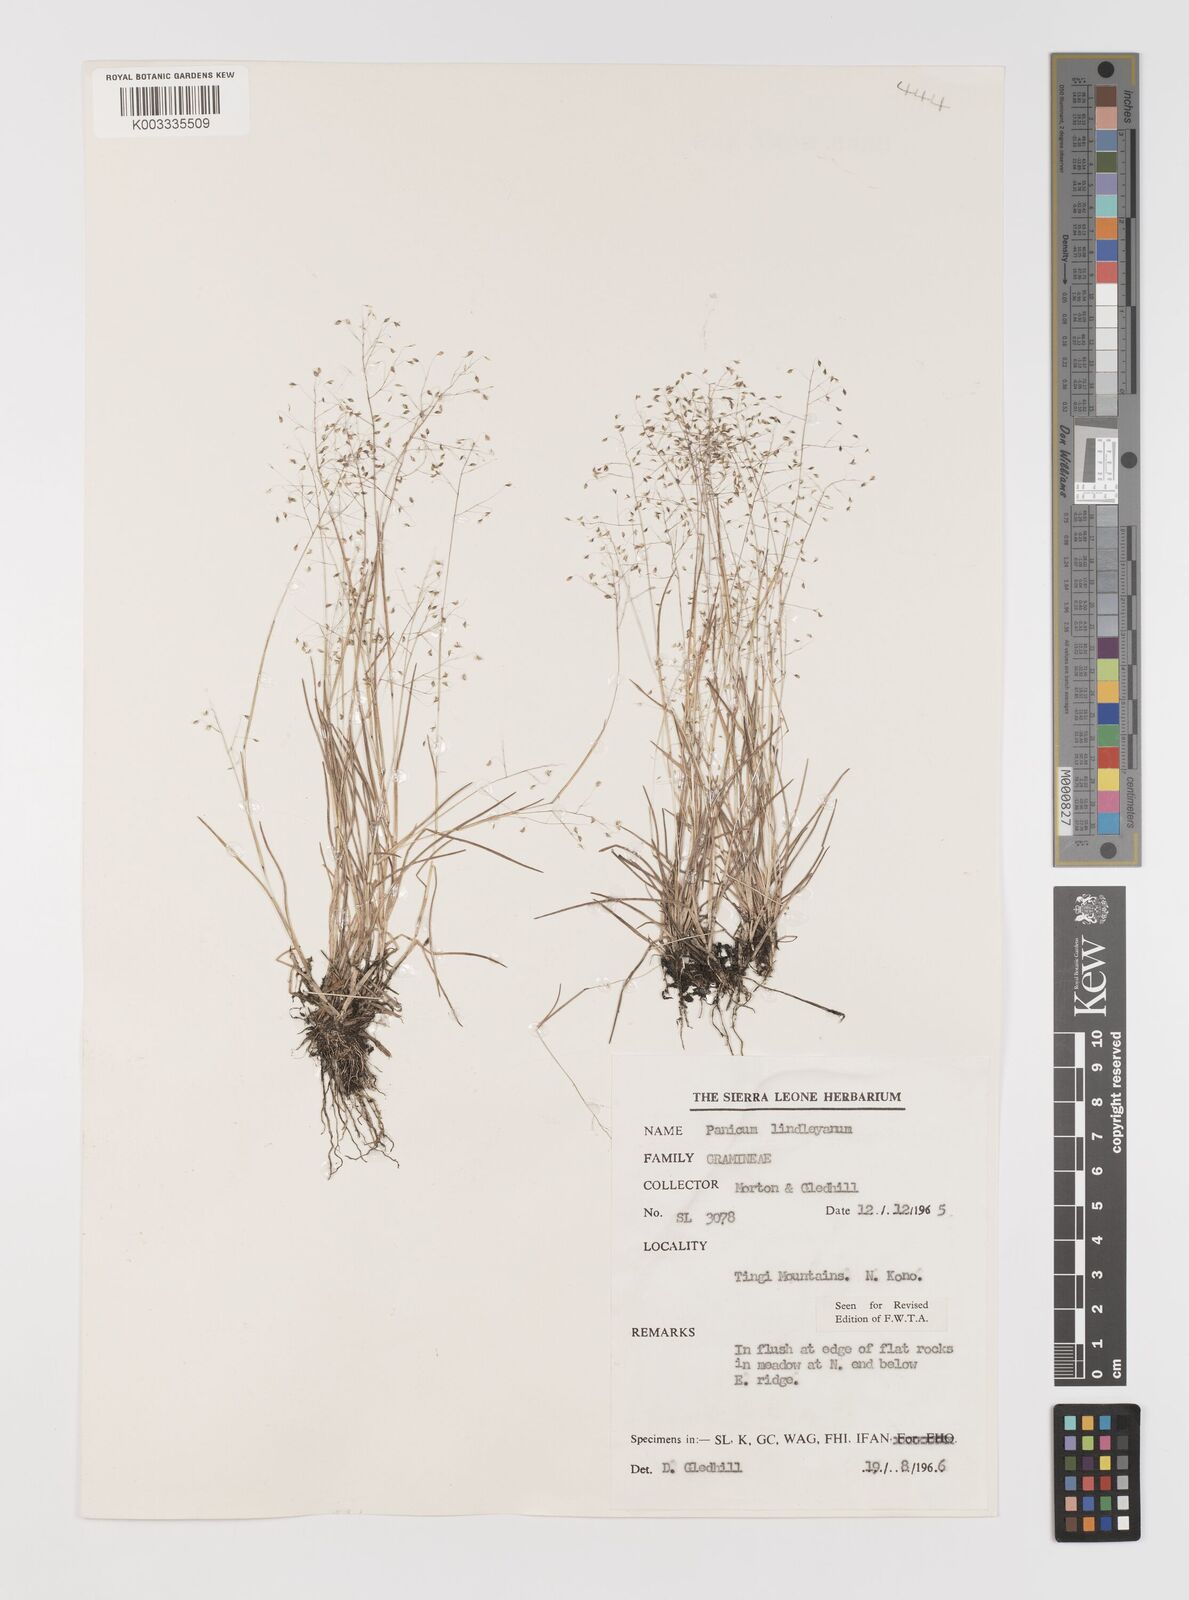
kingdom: Plantae
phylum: Tracheophyta
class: Liliopsida
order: Poales
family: Poaceae
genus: Trichanthecium
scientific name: Trichanthecium tenellum
